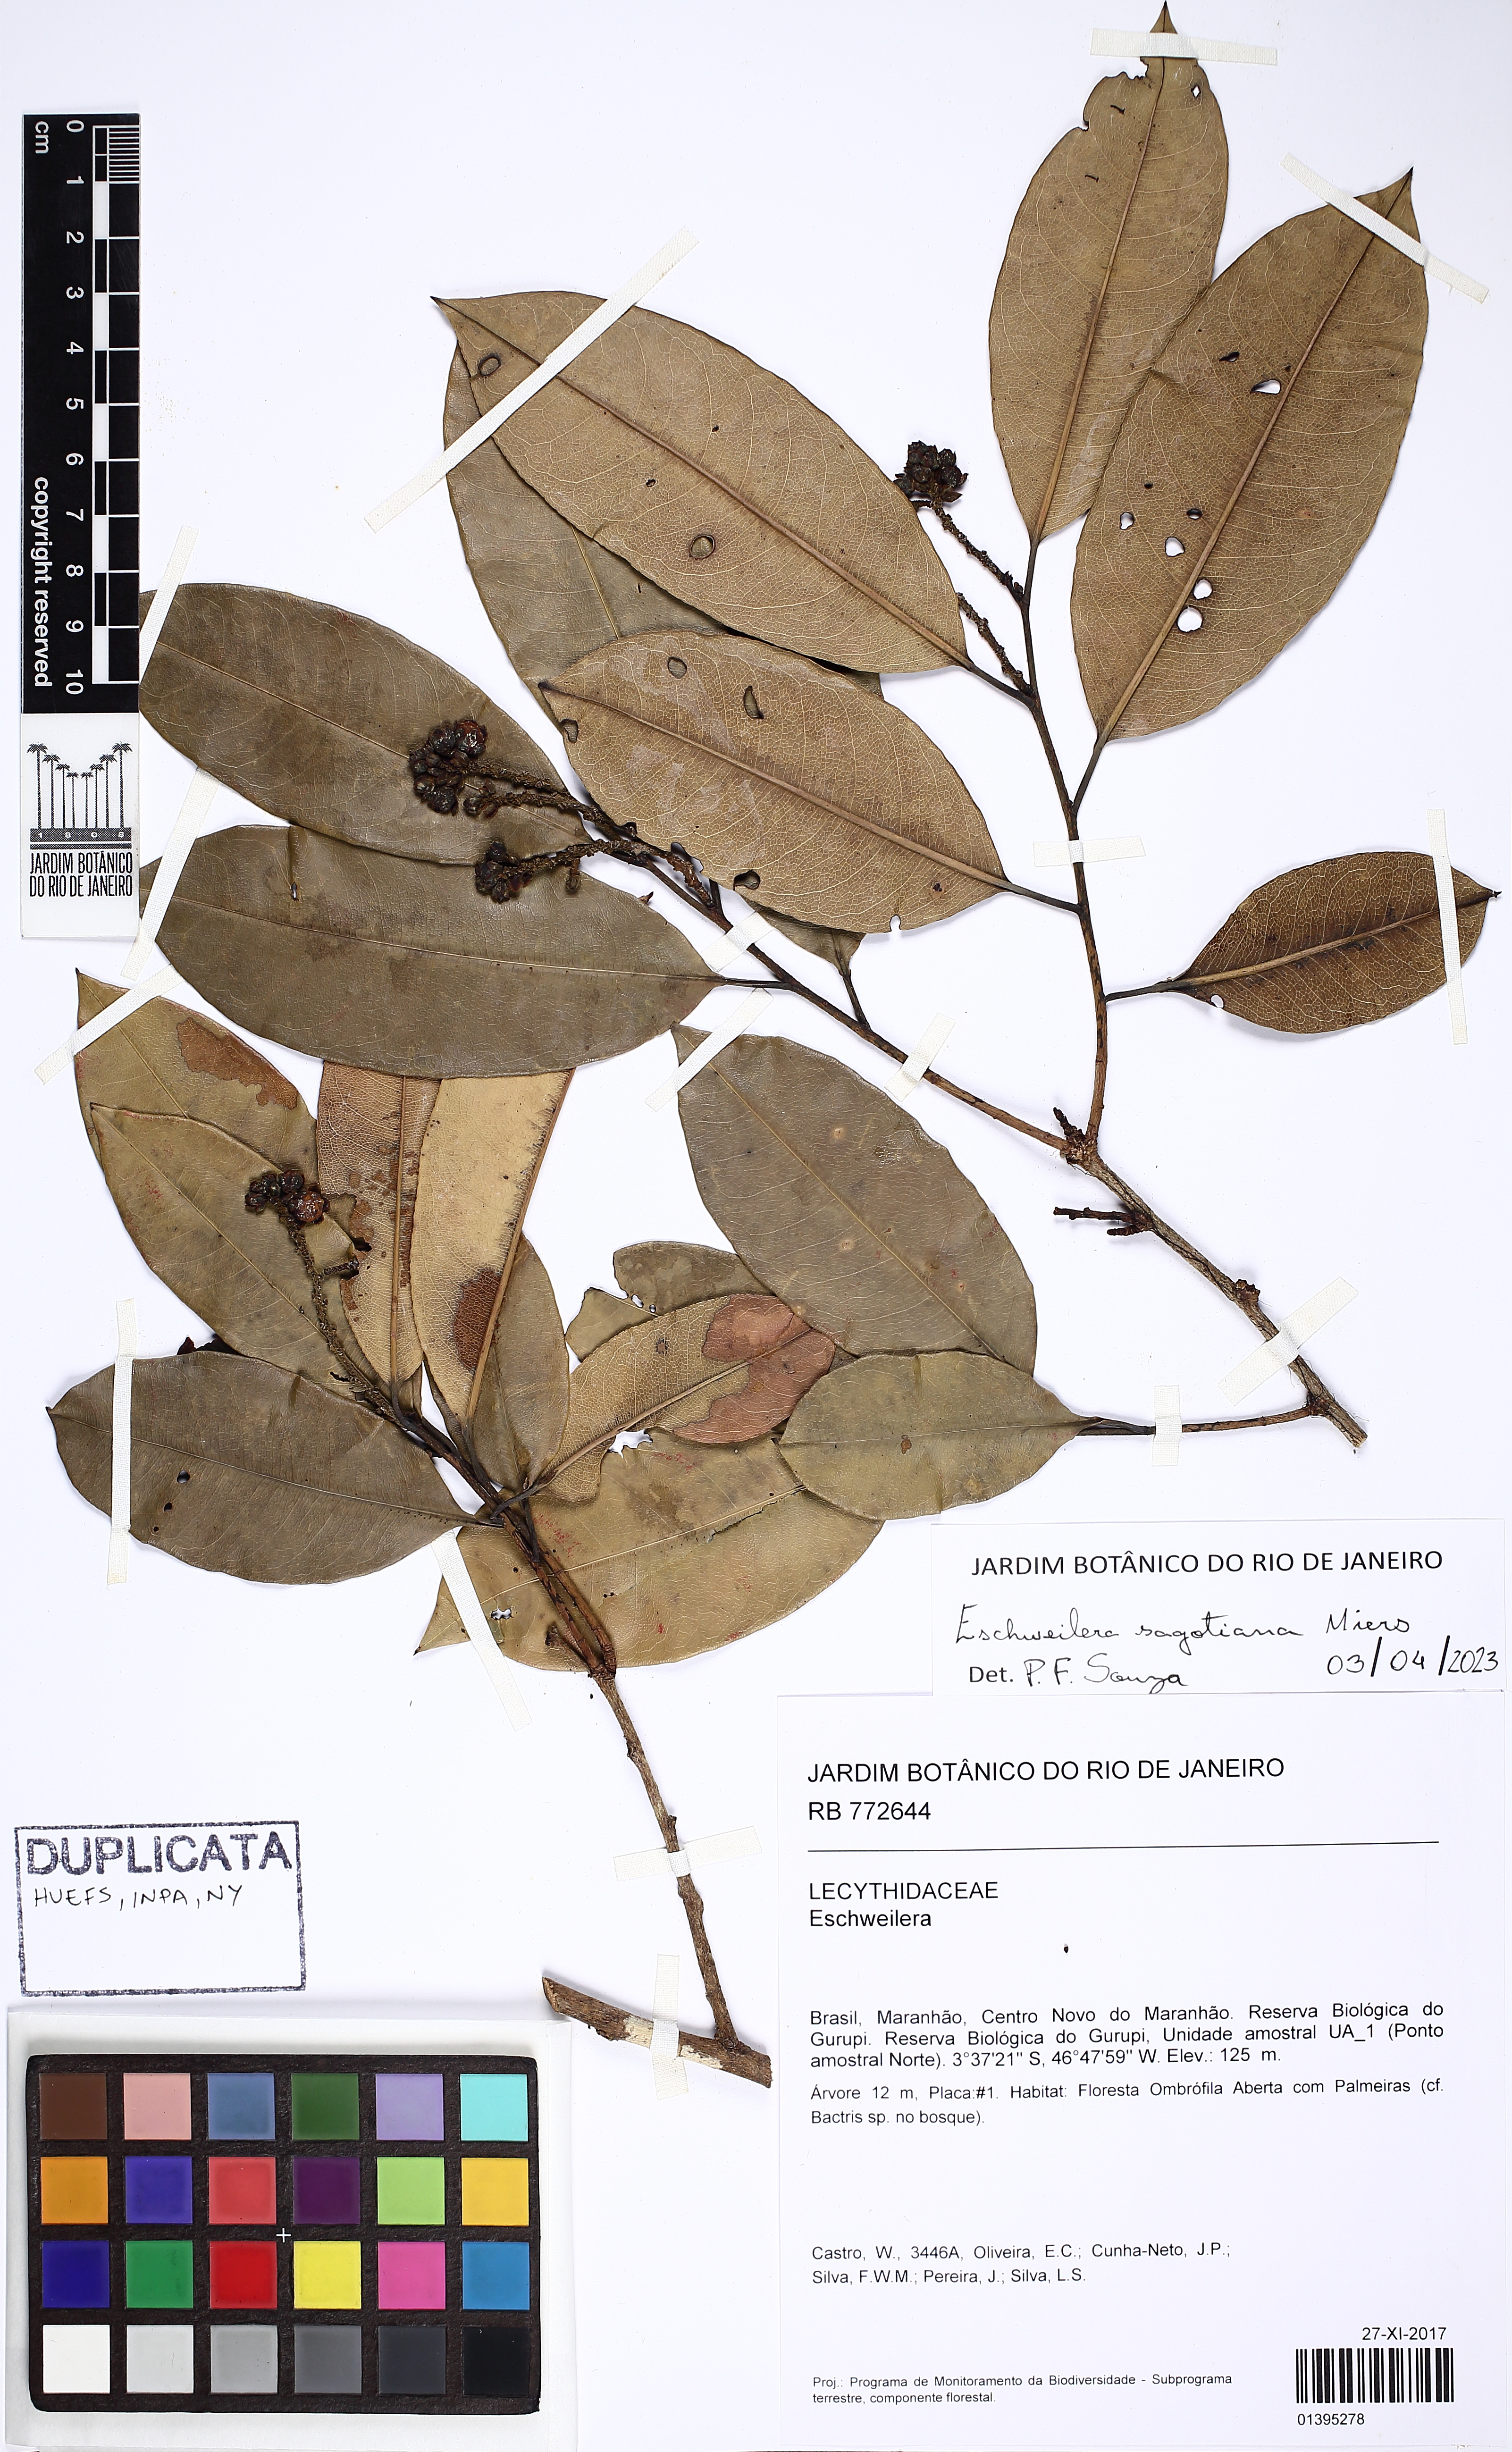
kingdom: Plantae
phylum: Tracheophyta
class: Magnoliopsida
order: Ericales
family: Lecythidaceae
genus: Eschweilera
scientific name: Eschweilera sagotiana
